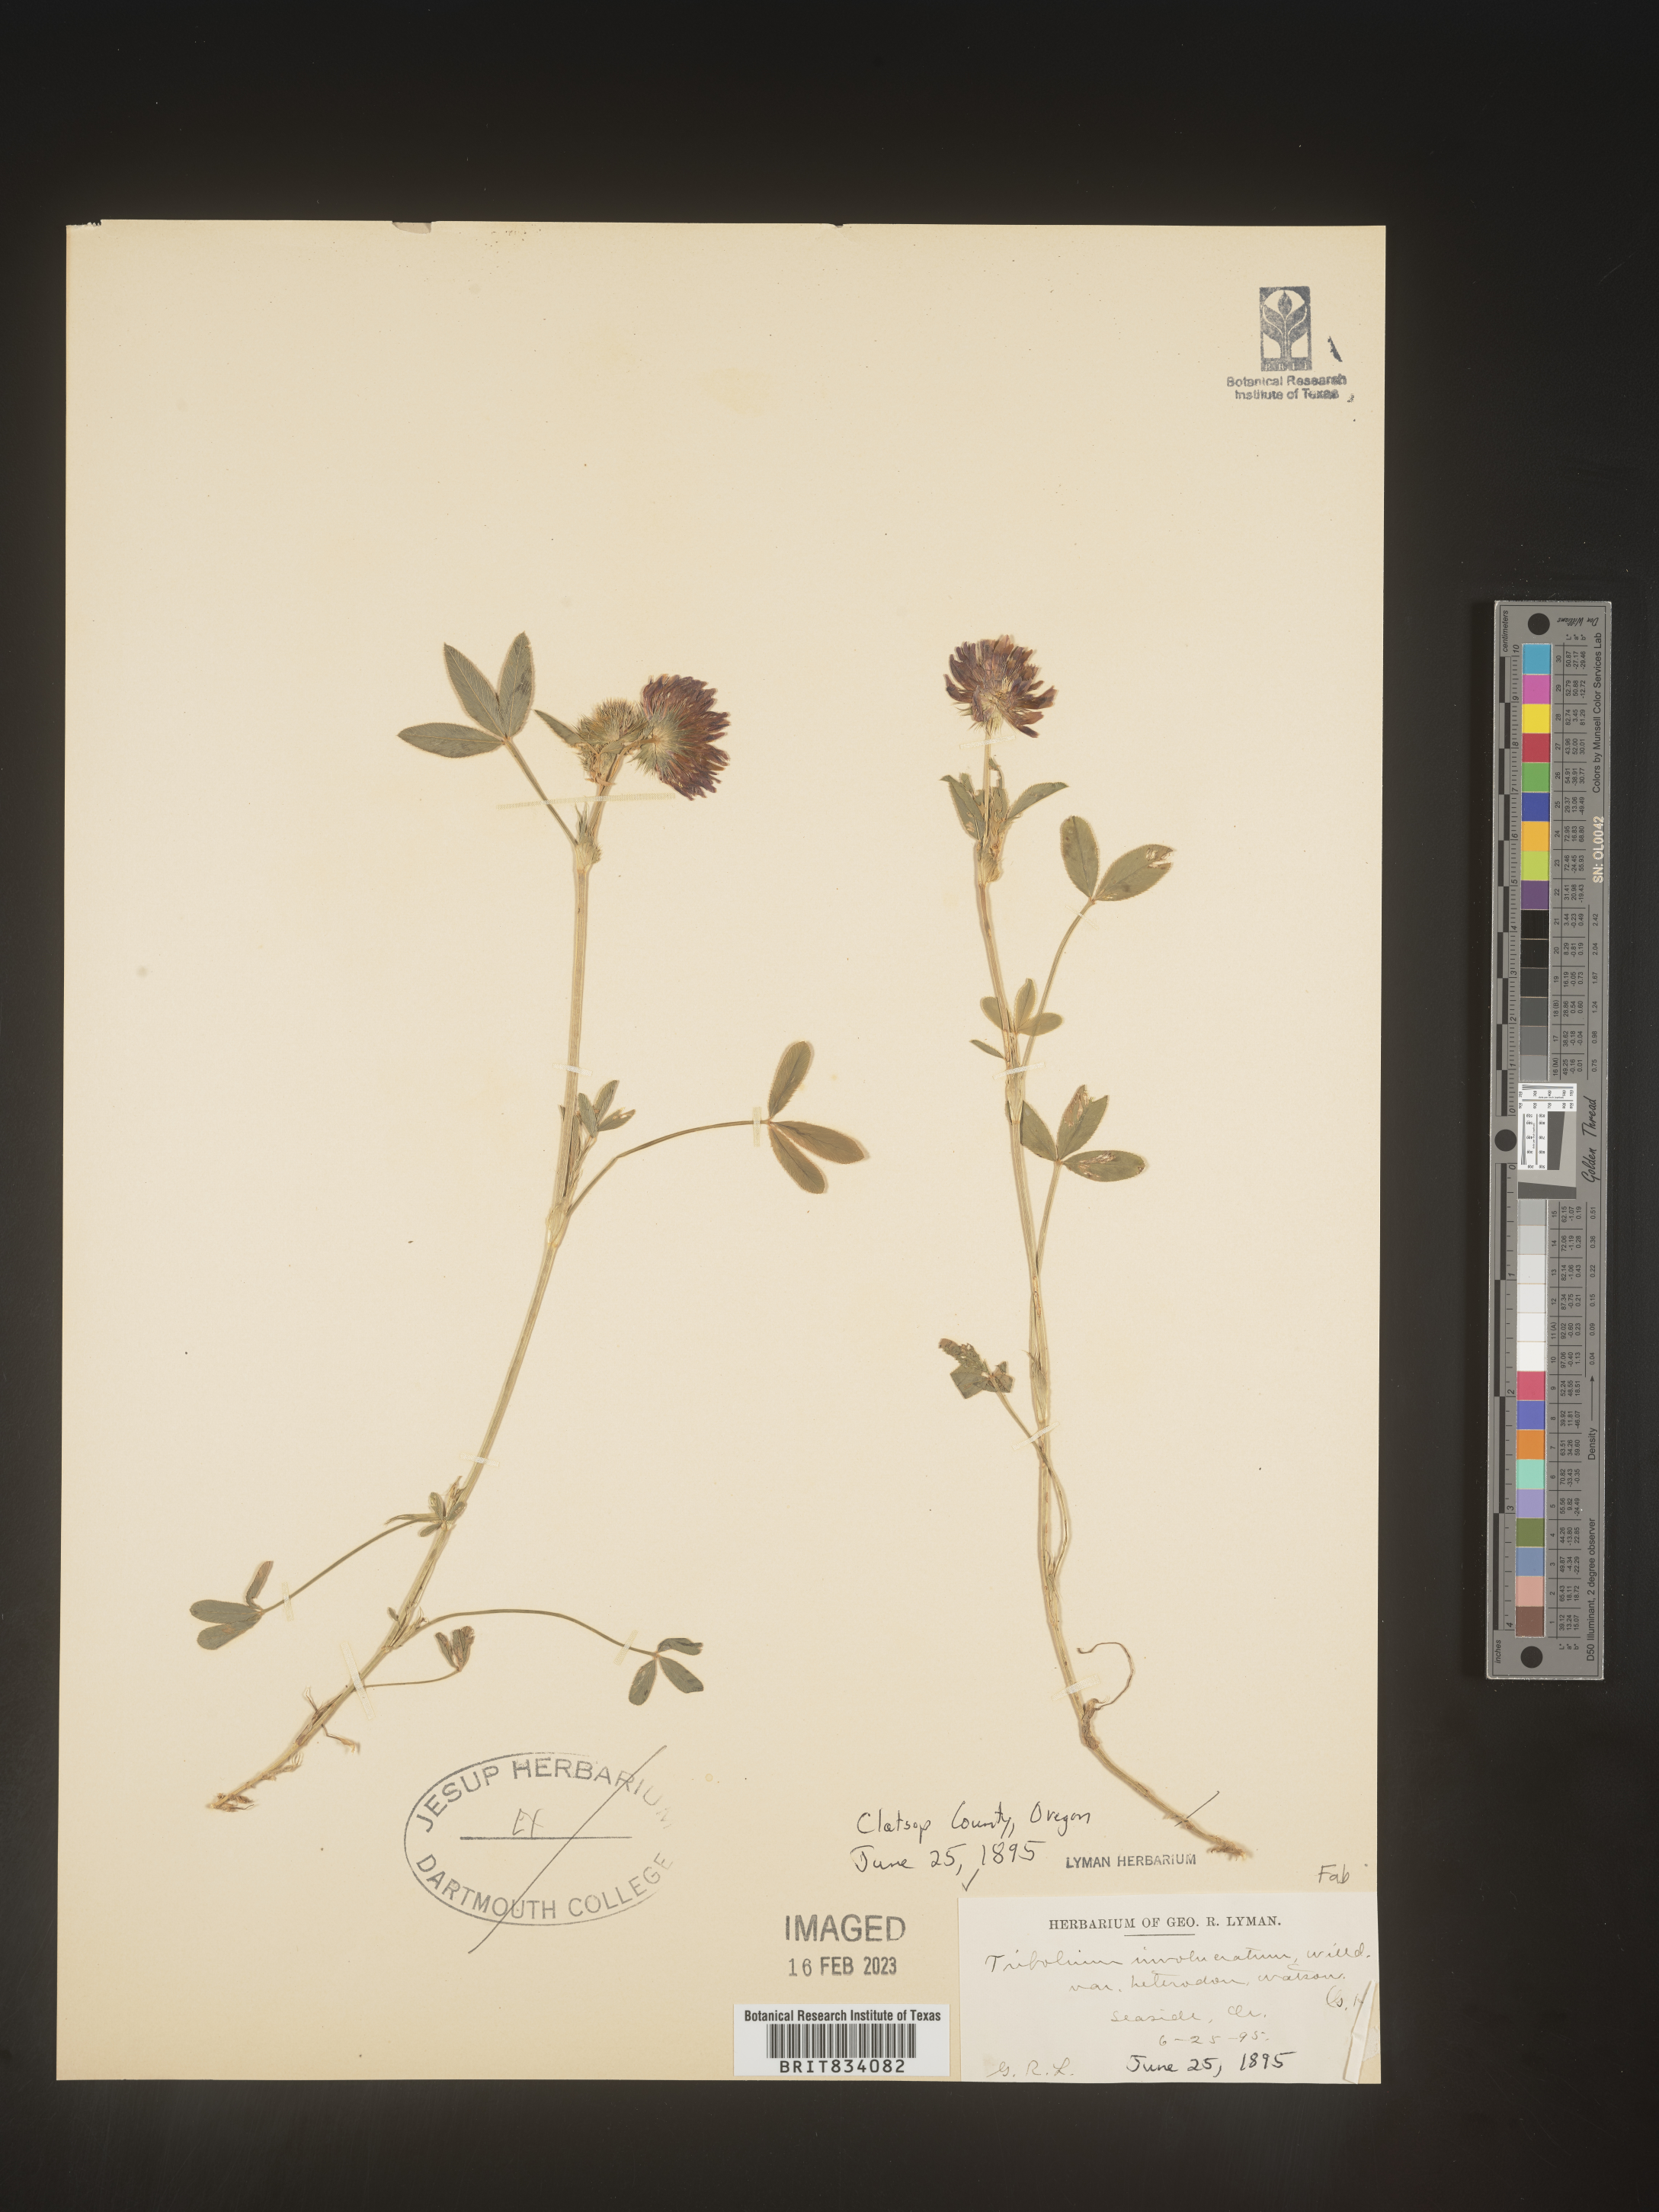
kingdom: Plantae
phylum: Tracheophyta
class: Magnoliopsida
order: Fabales
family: Fabaceae
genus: Trifolium
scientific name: Trifolium willdenovii
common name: Tomcat clover
